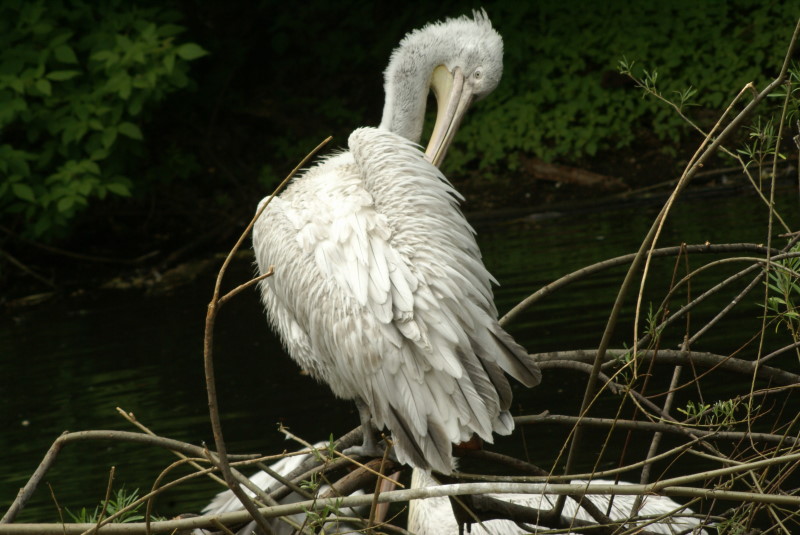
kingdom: Animalia
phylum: Chordata
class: Aves
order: Pelecaniformes
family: Pelecanidae
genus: Pelecanus
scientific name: Pelecanus onocrotalus
